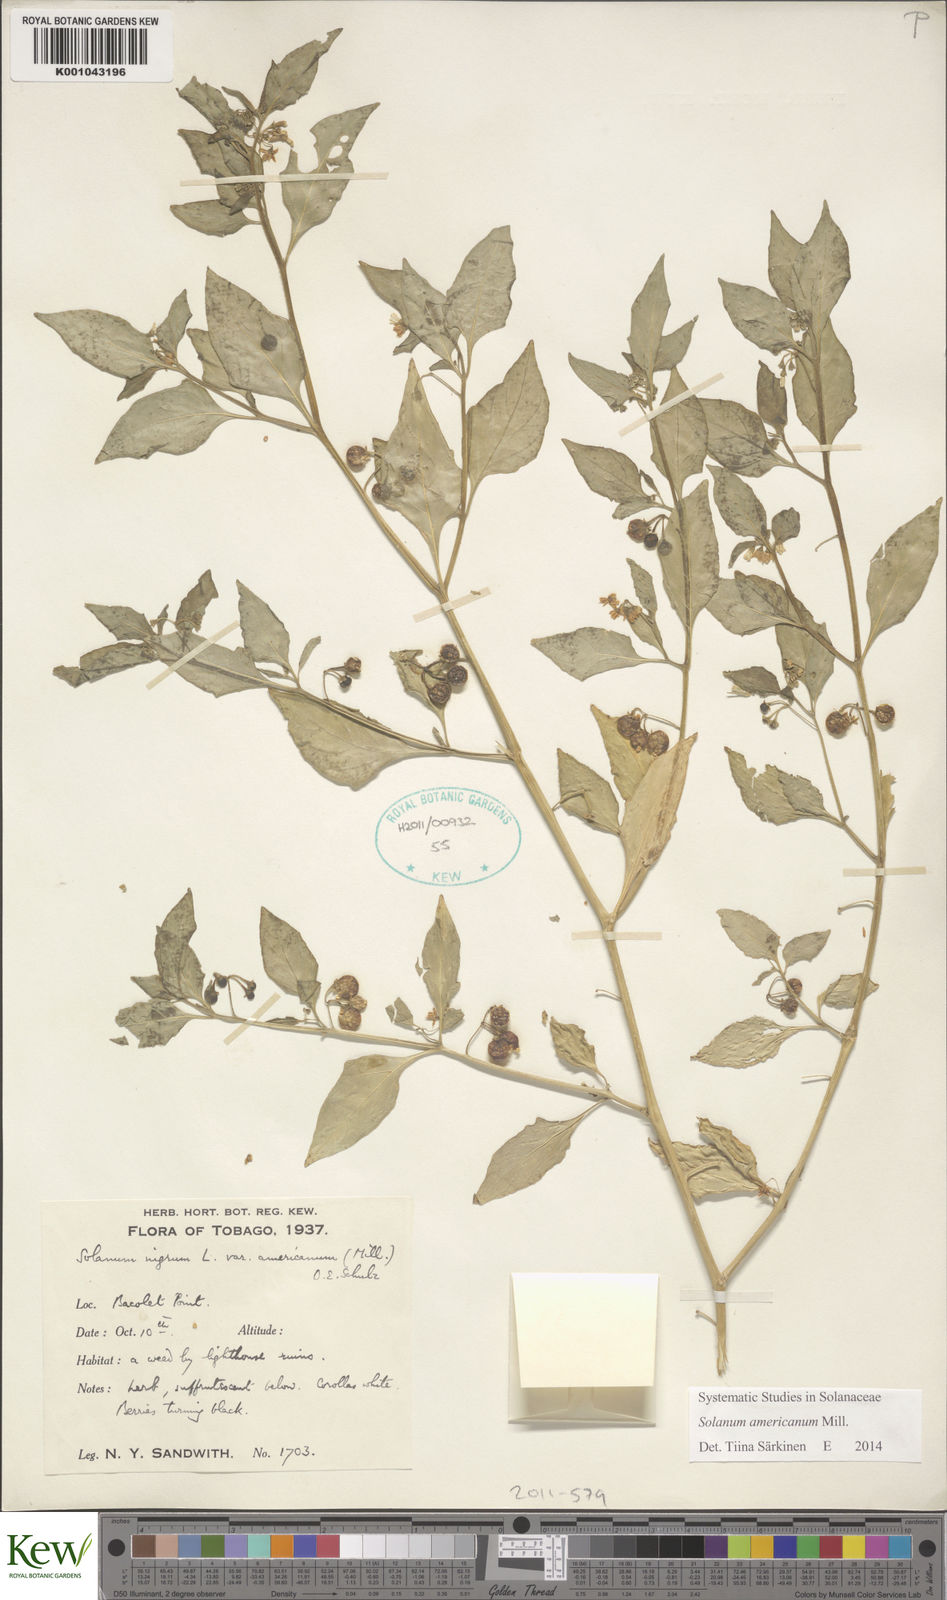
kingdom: Plantae
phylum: Tracheophyta
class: Magnoliopsida
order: Solanales
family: Solanaceae
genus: Solanum
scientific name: Solanum americanum
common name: American black nightshade
